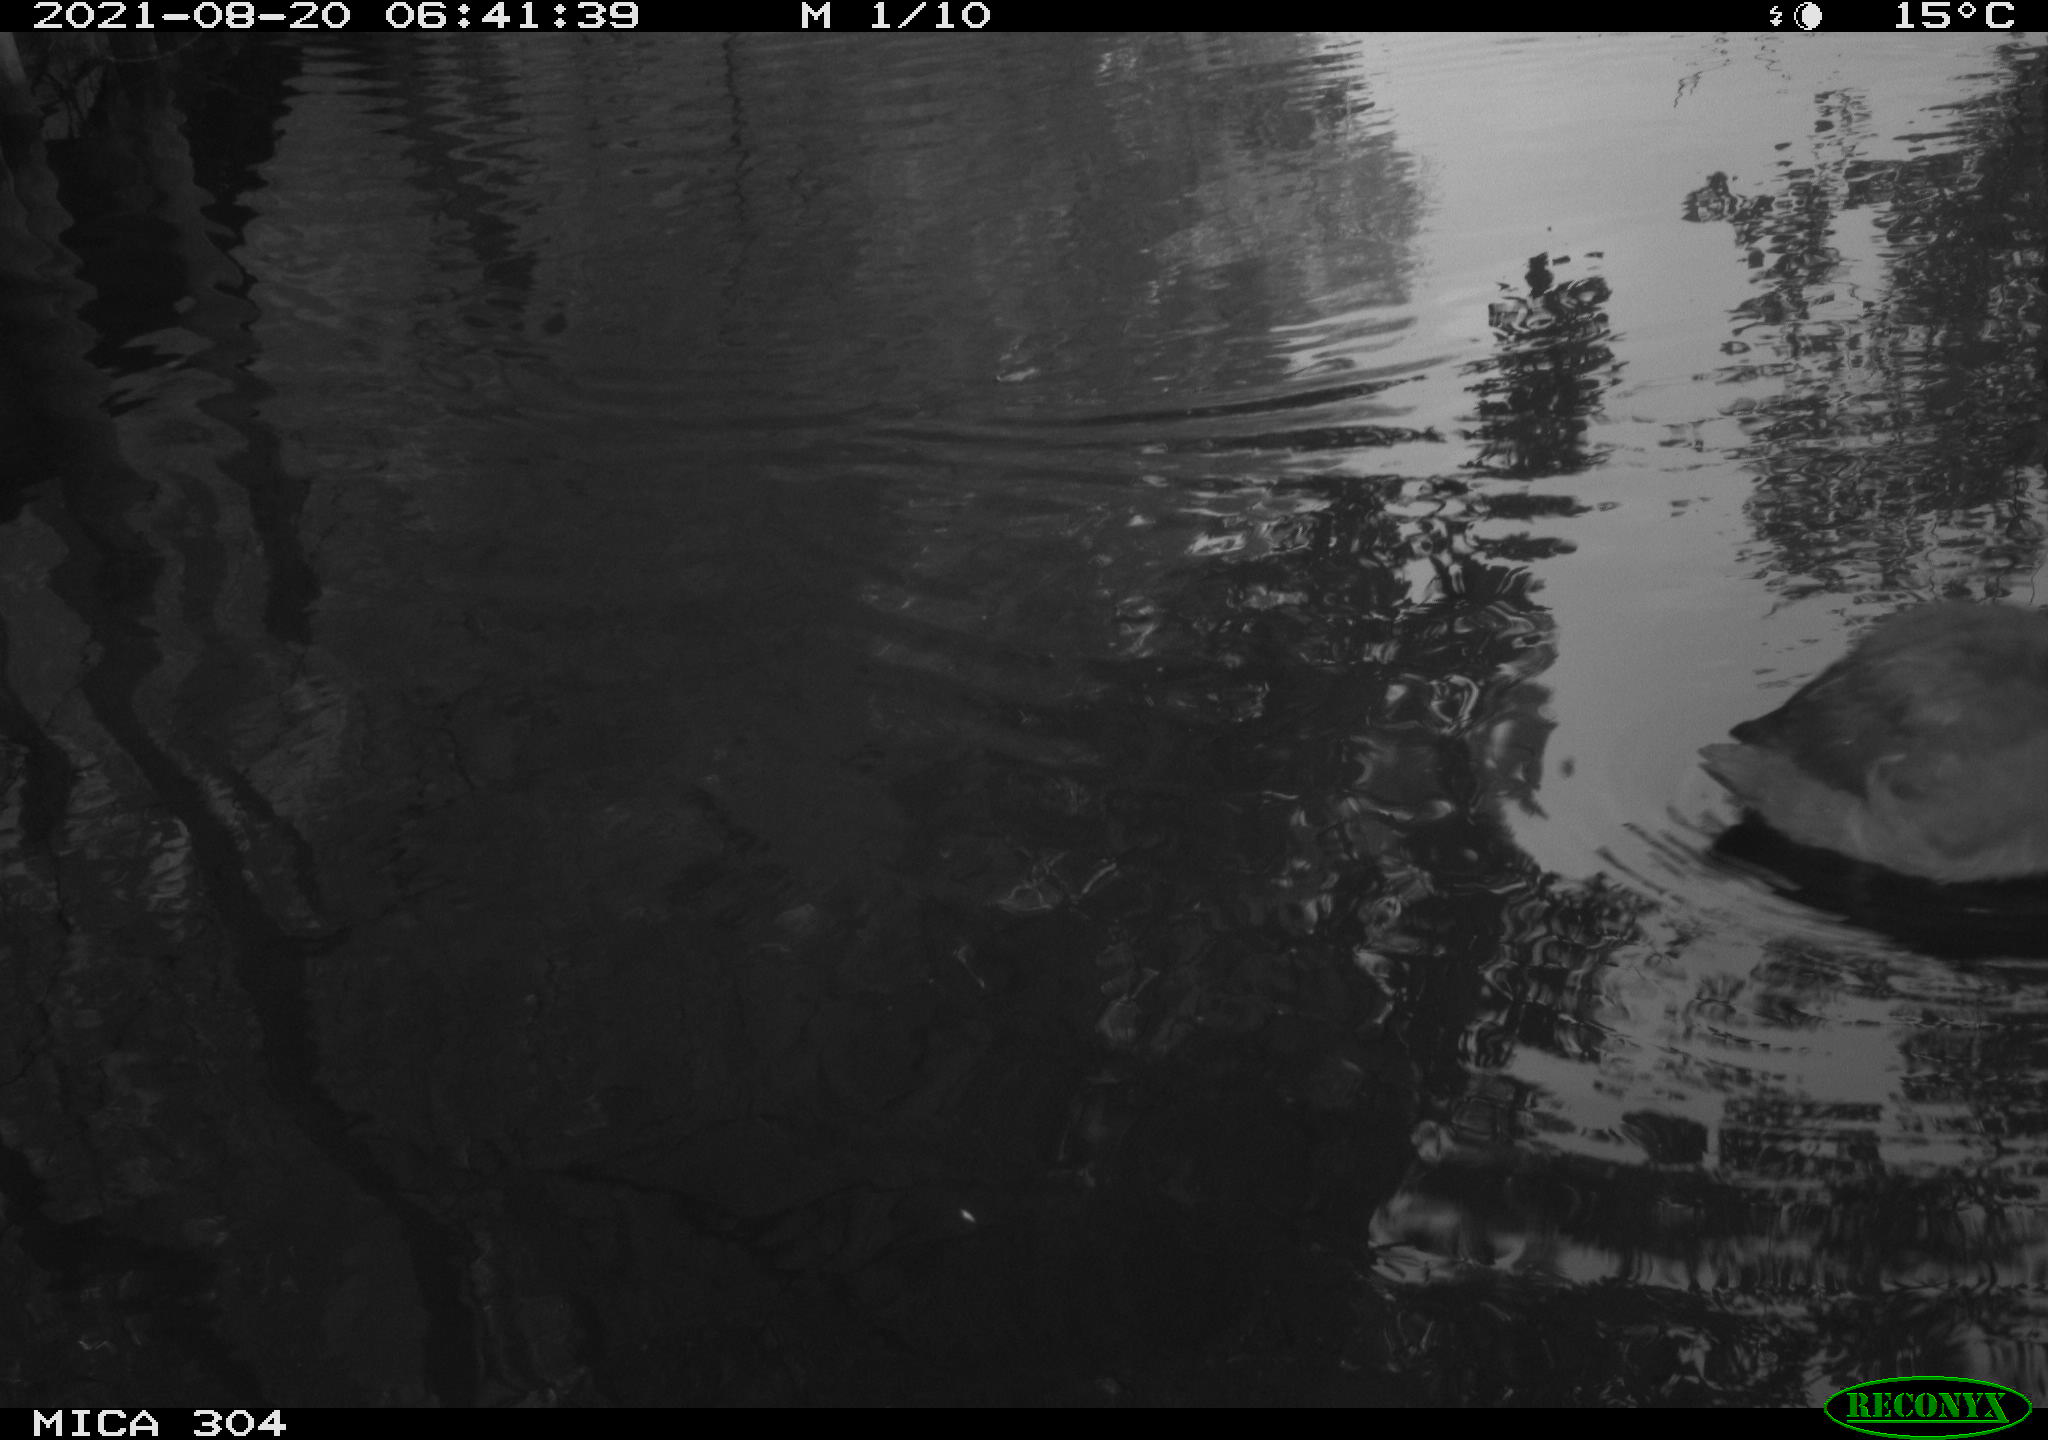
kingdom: Animalia
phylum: Chordata
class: Aves
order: Gruiformes
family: Rallidae
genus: Fulica
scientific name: Fulica atra
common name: Eurasian coot
